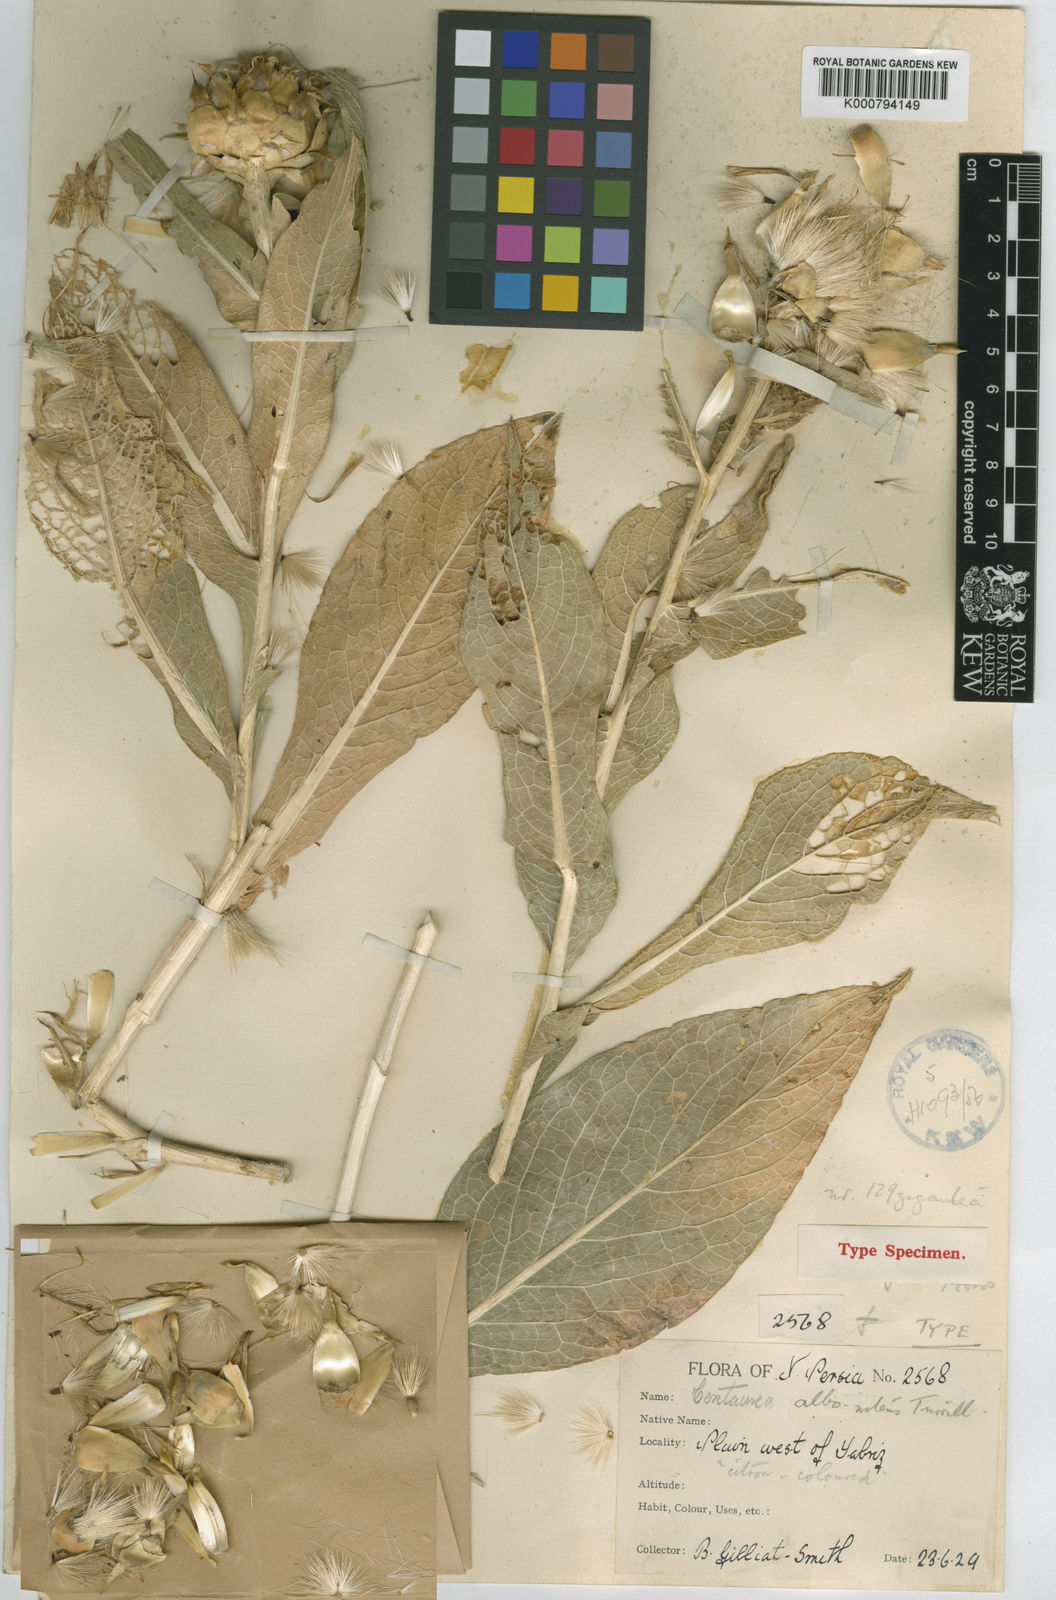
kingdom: Plantae
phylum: Tracheophyta
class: Magnoliopsida
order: Asterales
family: Asteraceae
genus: Centaurea
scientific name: Centaurea albonitens
